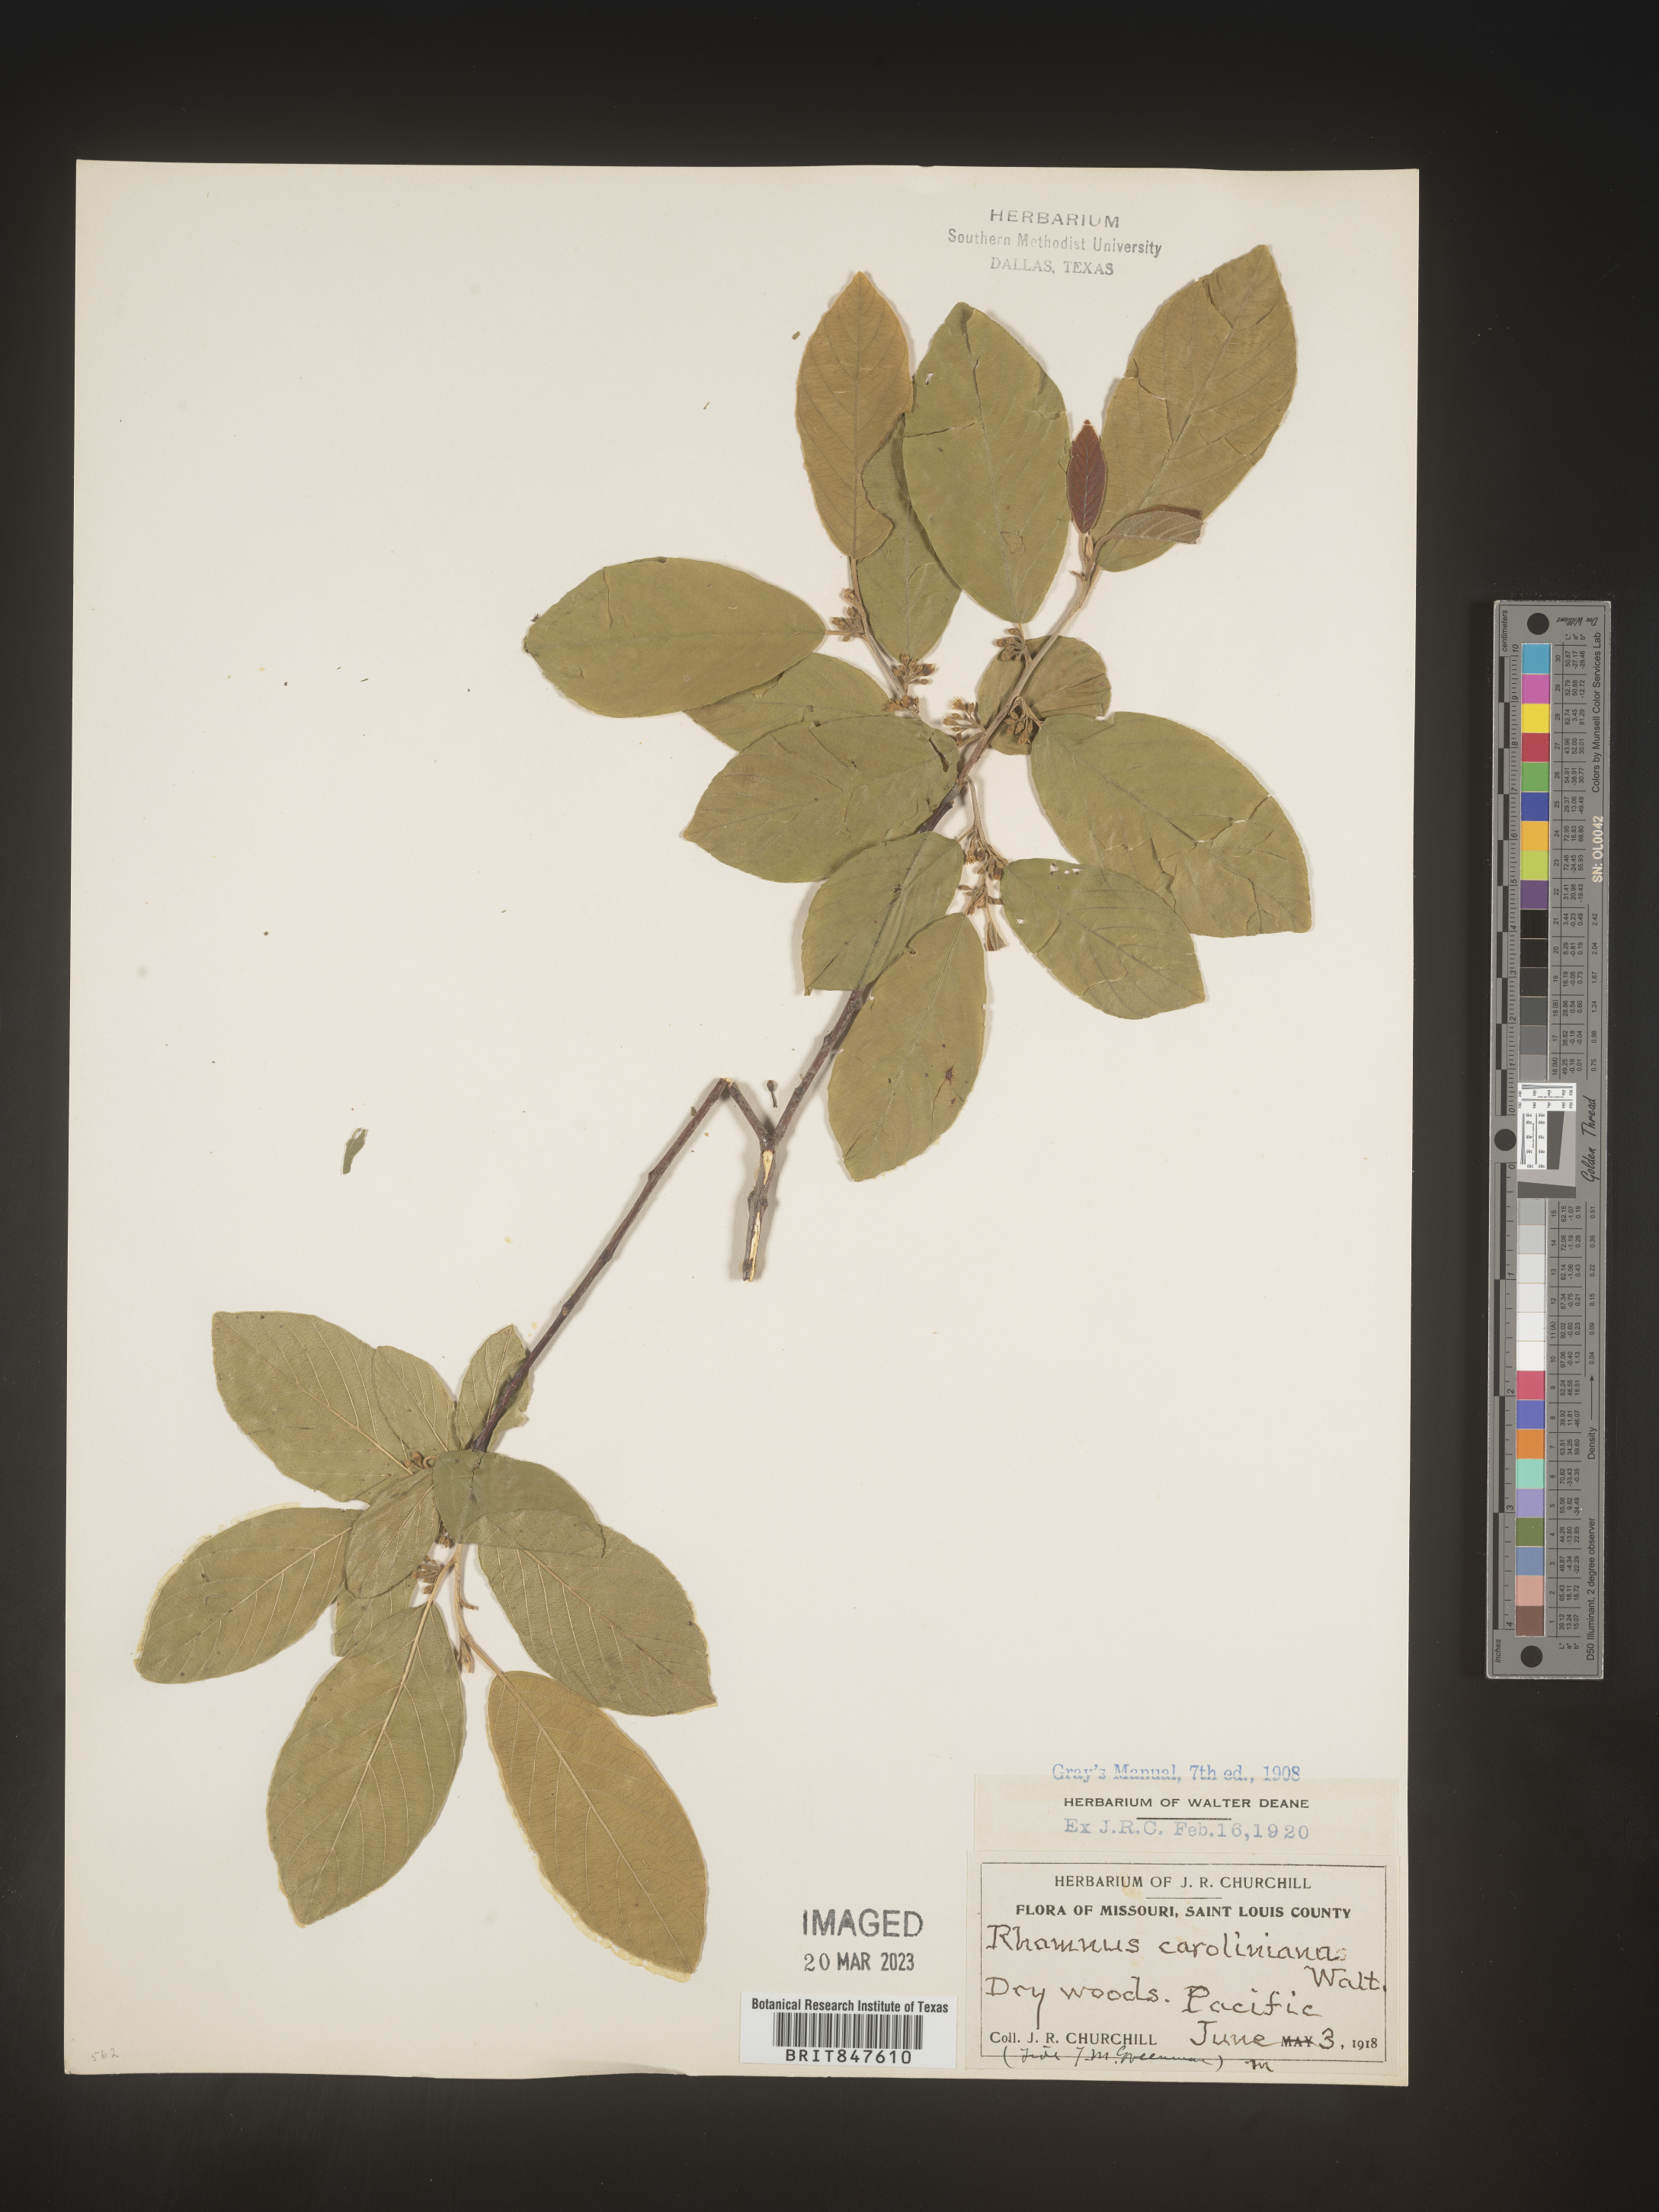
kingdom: Plantae
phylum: Tracheophyta
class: Magnoliopsida
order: Rosales
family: Rhamnaceae
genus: Frangula
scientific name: Frangula caroliniana
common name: Carolina buckthorn
